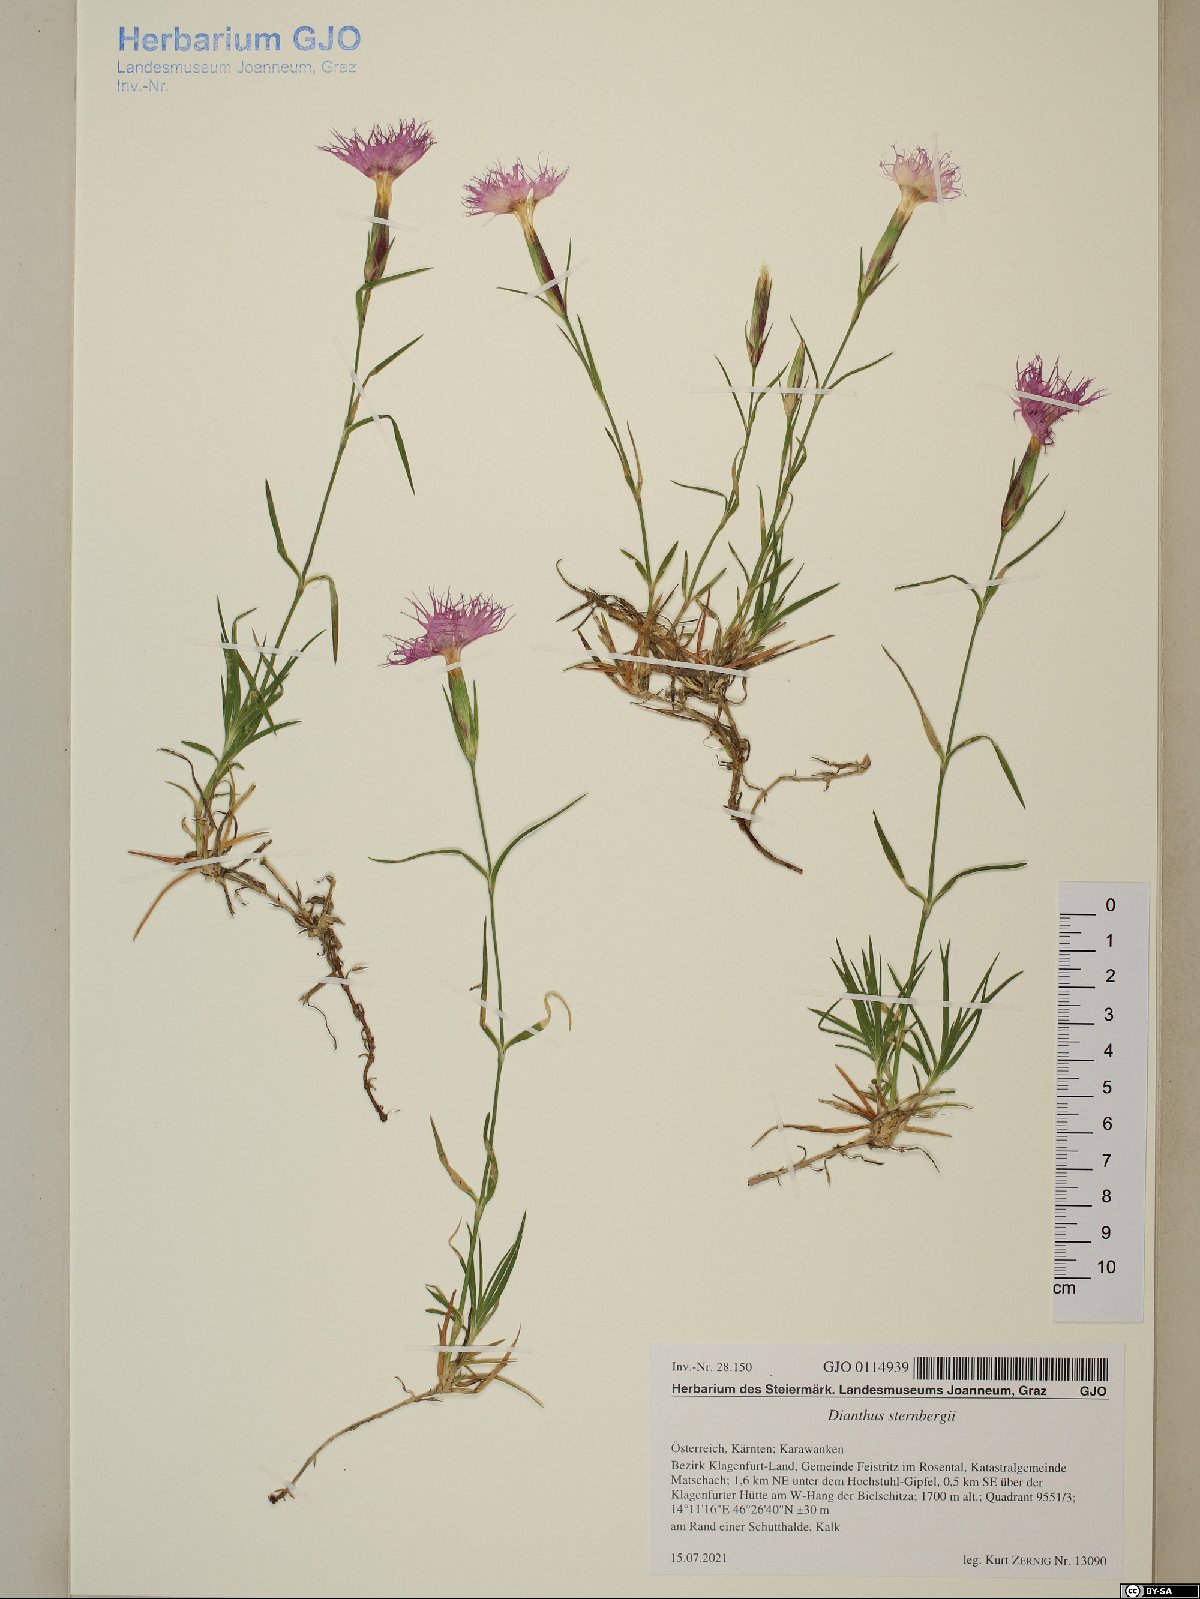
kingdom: Plantae
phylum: Tracheophyta
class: Magnoliopsida
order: Caryophyllales
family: Caryophyllaceae
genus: Dianthus
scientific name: Dianthus sternbergii
